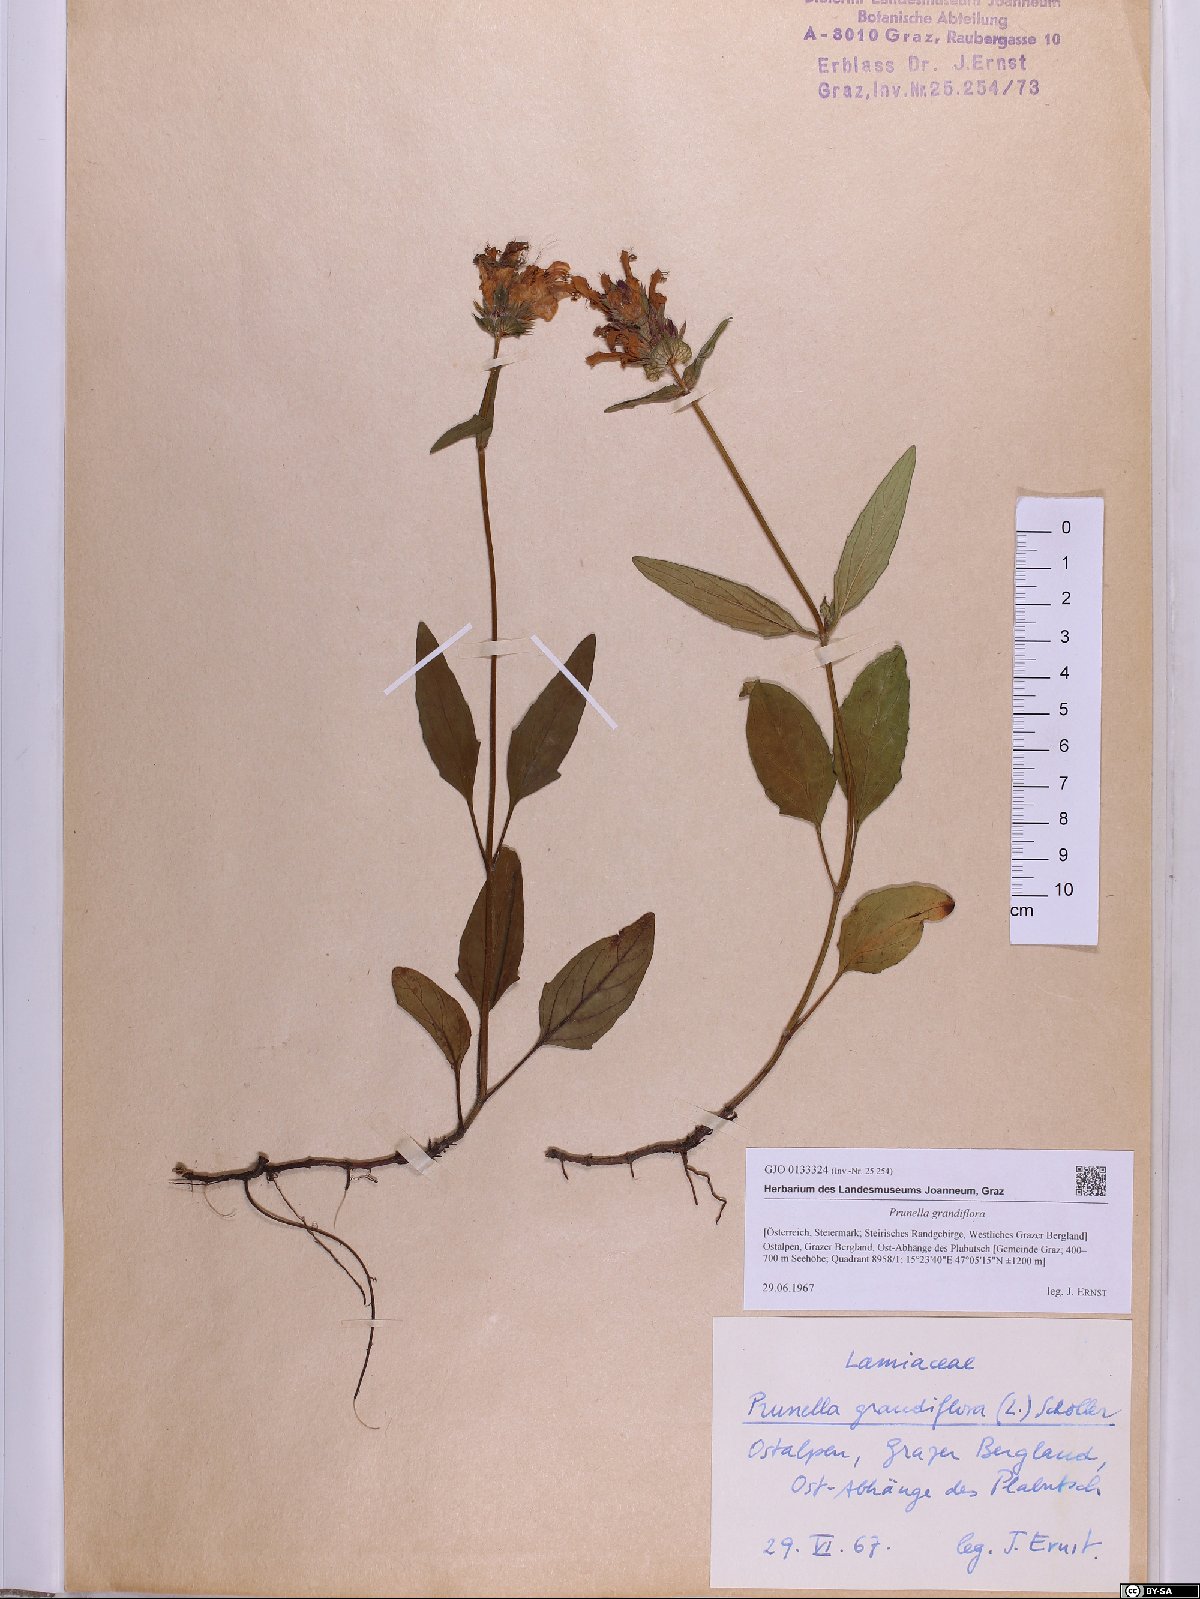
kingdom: Plantae
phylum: Tracheophyta
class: Magnoliopsida
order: Lamiales
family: Lamiaceae
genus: Prunella
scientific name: Prunella grandiflora
